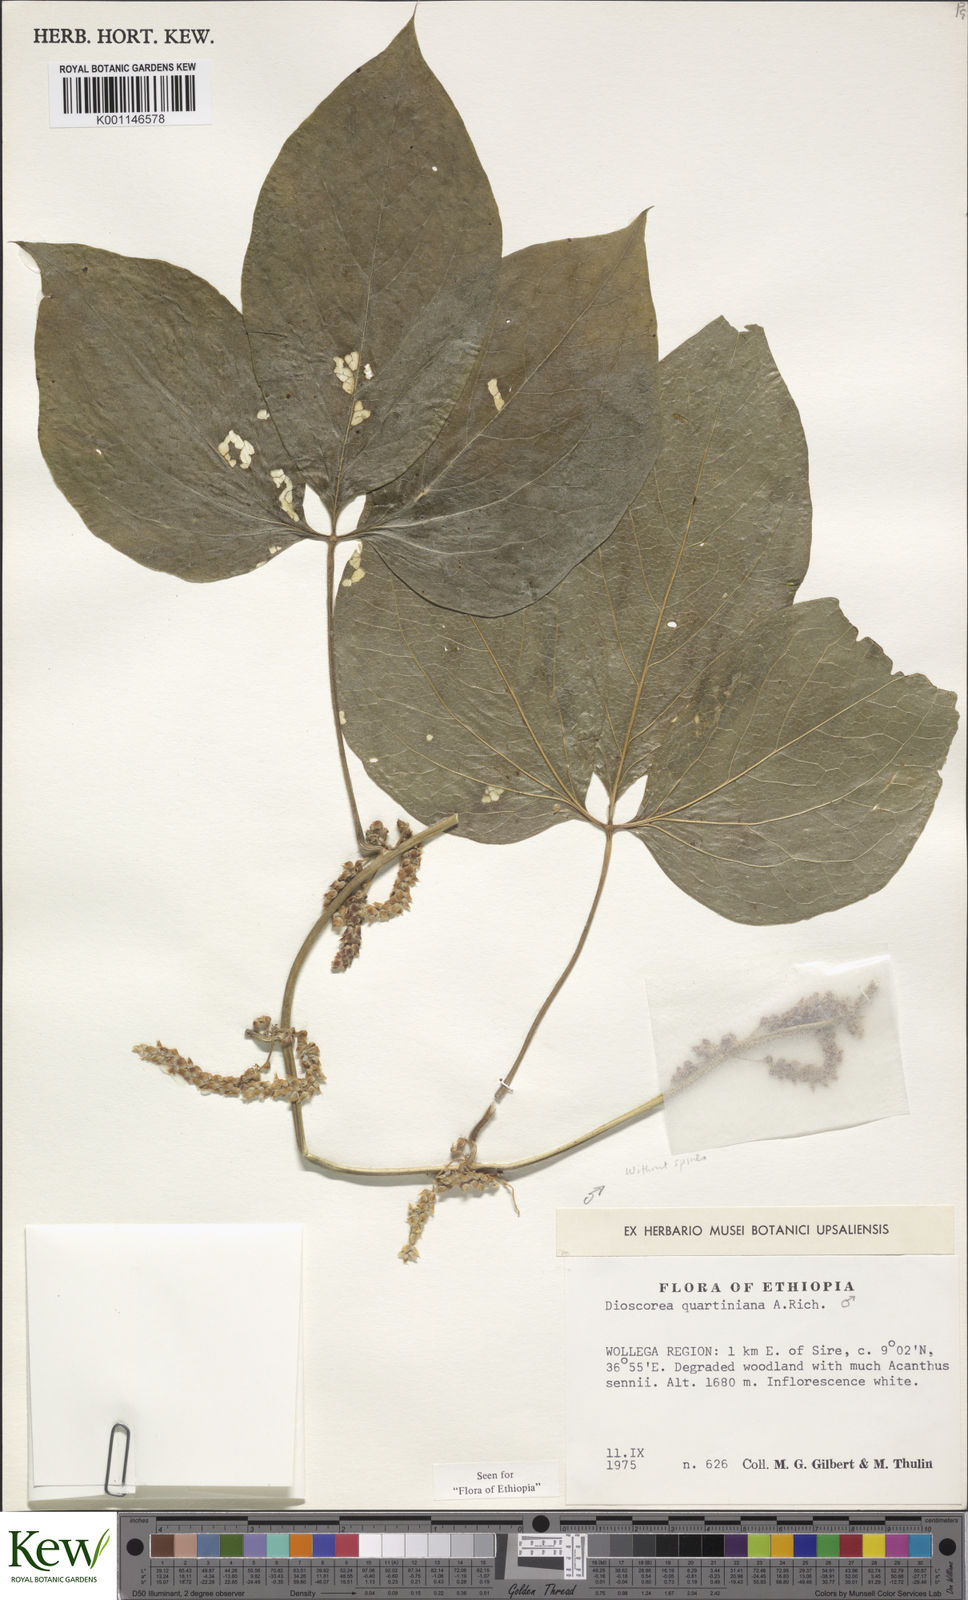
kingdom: Plantae
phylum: Tracheophyta
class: Liliopsida
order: Dioscoreales
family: Dioscoreaceae
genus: Dioscorea
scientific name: Dioscorea quartiniana
